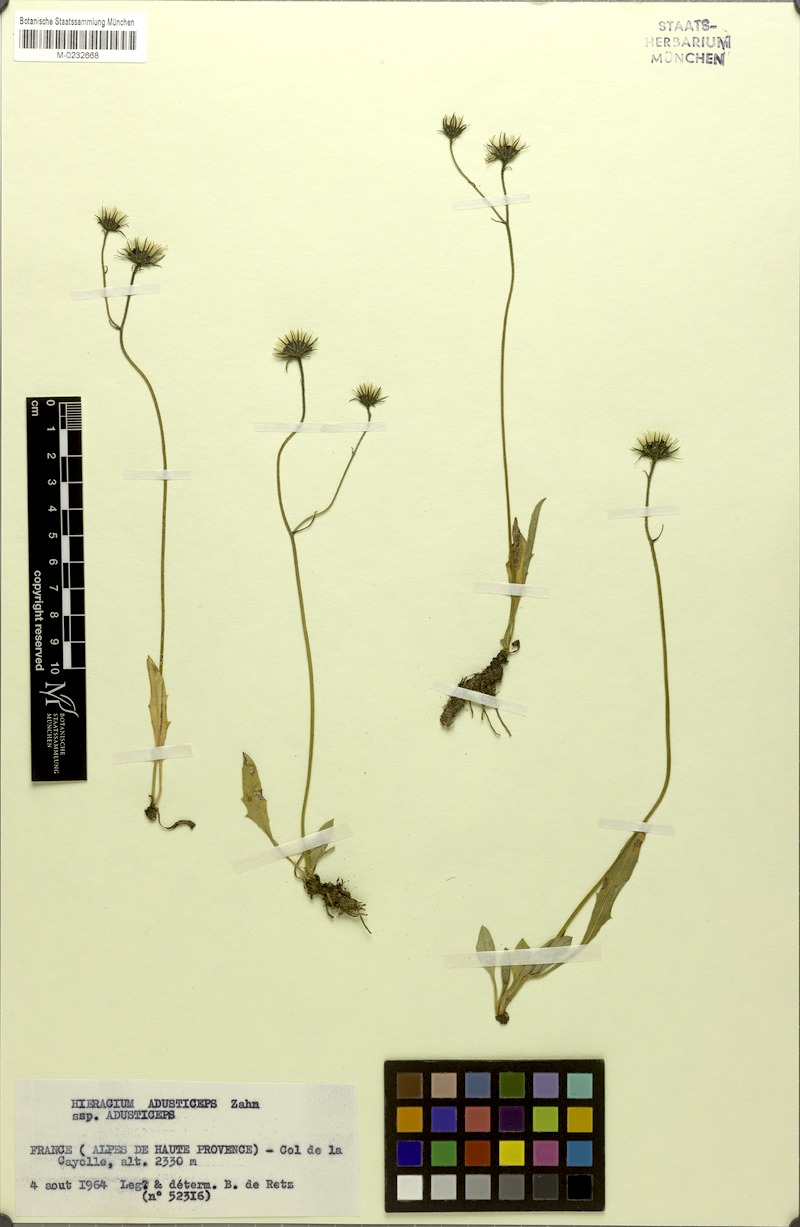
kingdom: Plantae
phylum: Tracheophyta
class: Magnoliopsida
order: Asterales
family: Asteraceae
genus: Hieracium
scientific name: Hieracium melanops
